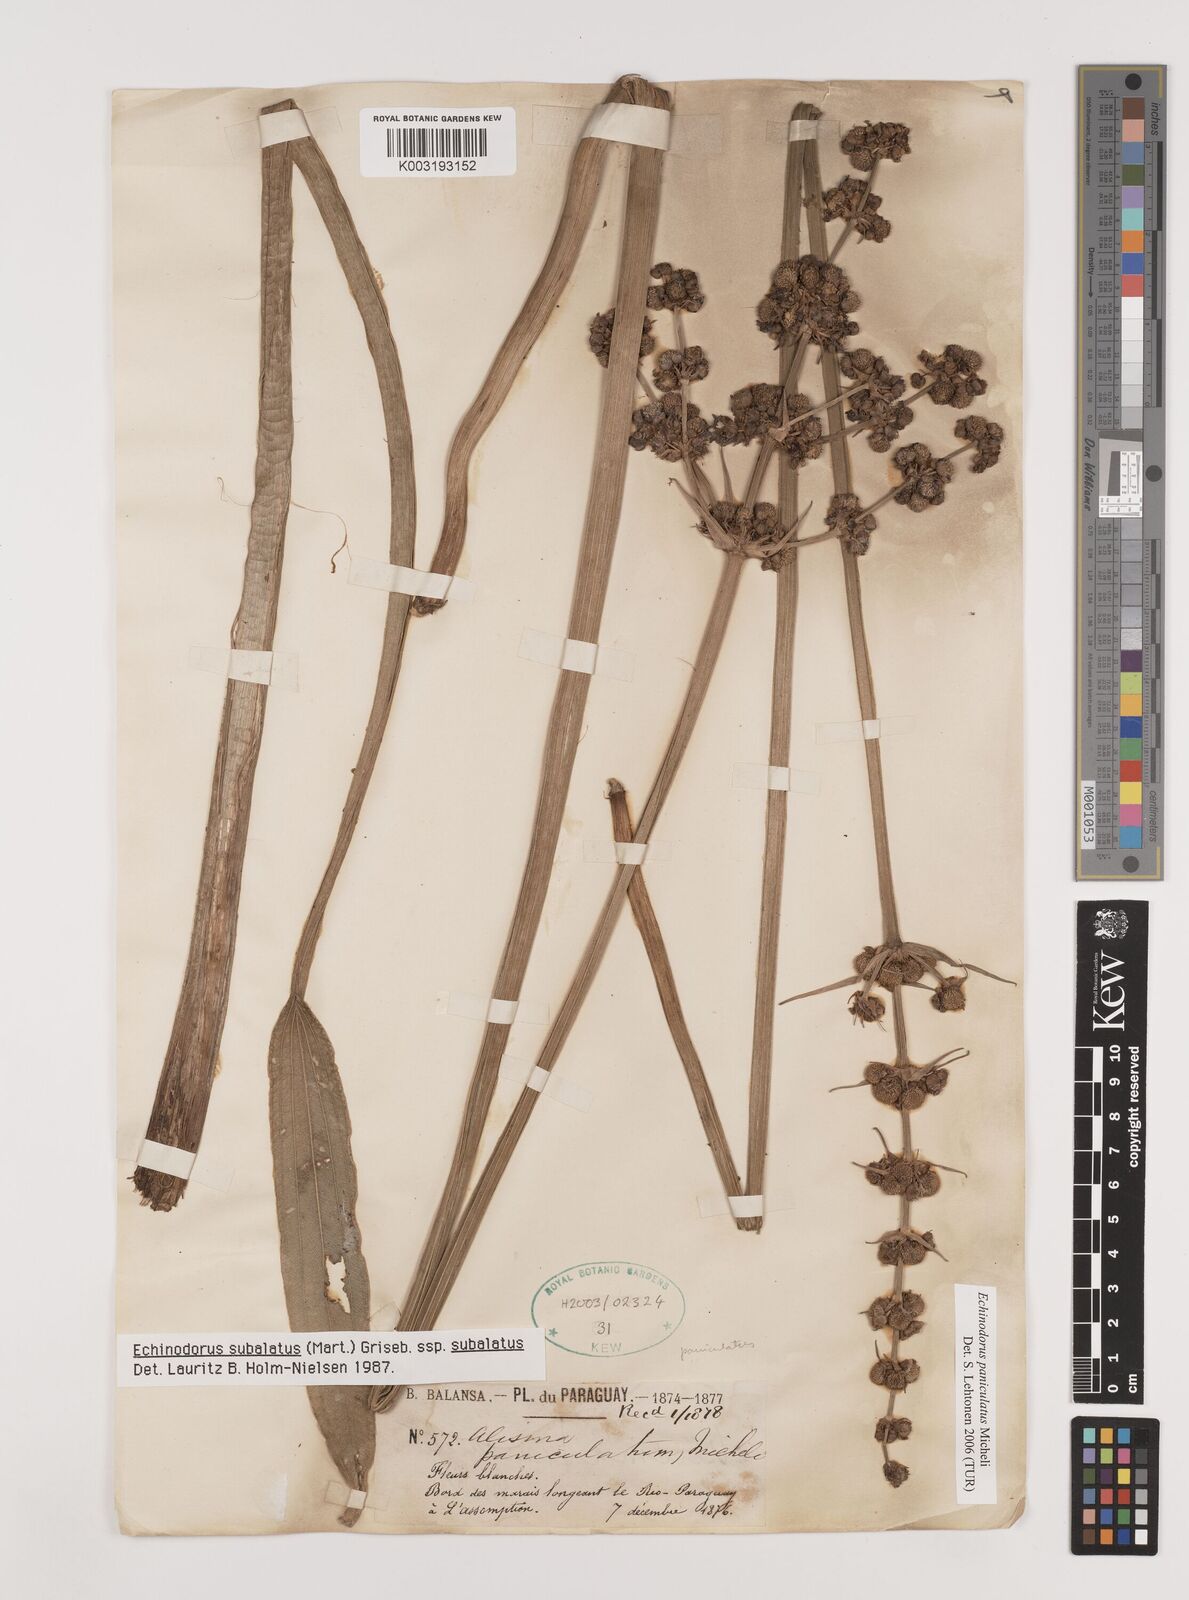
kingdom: Plantae
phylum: Tracheophyta
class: Liliopsida
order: Alismatales
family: Alismataceae
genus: Aquarius
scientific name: Aquarius paniculatus
